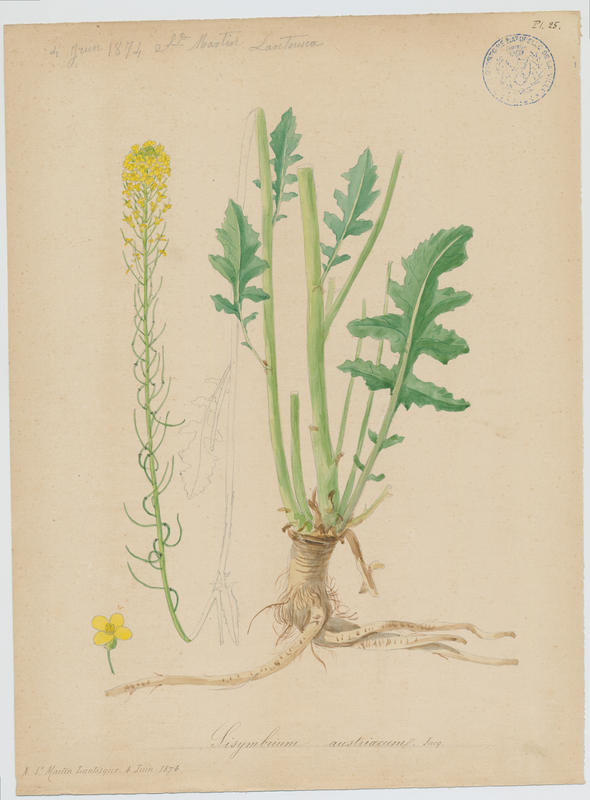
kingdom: Plantae
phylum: Tracheophyta
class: Magnoliopsida
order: Brassicales
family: Brassicaceae
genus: Sisymbrium
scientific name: Sisymbrium austriacum
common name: Jeweled rocket
